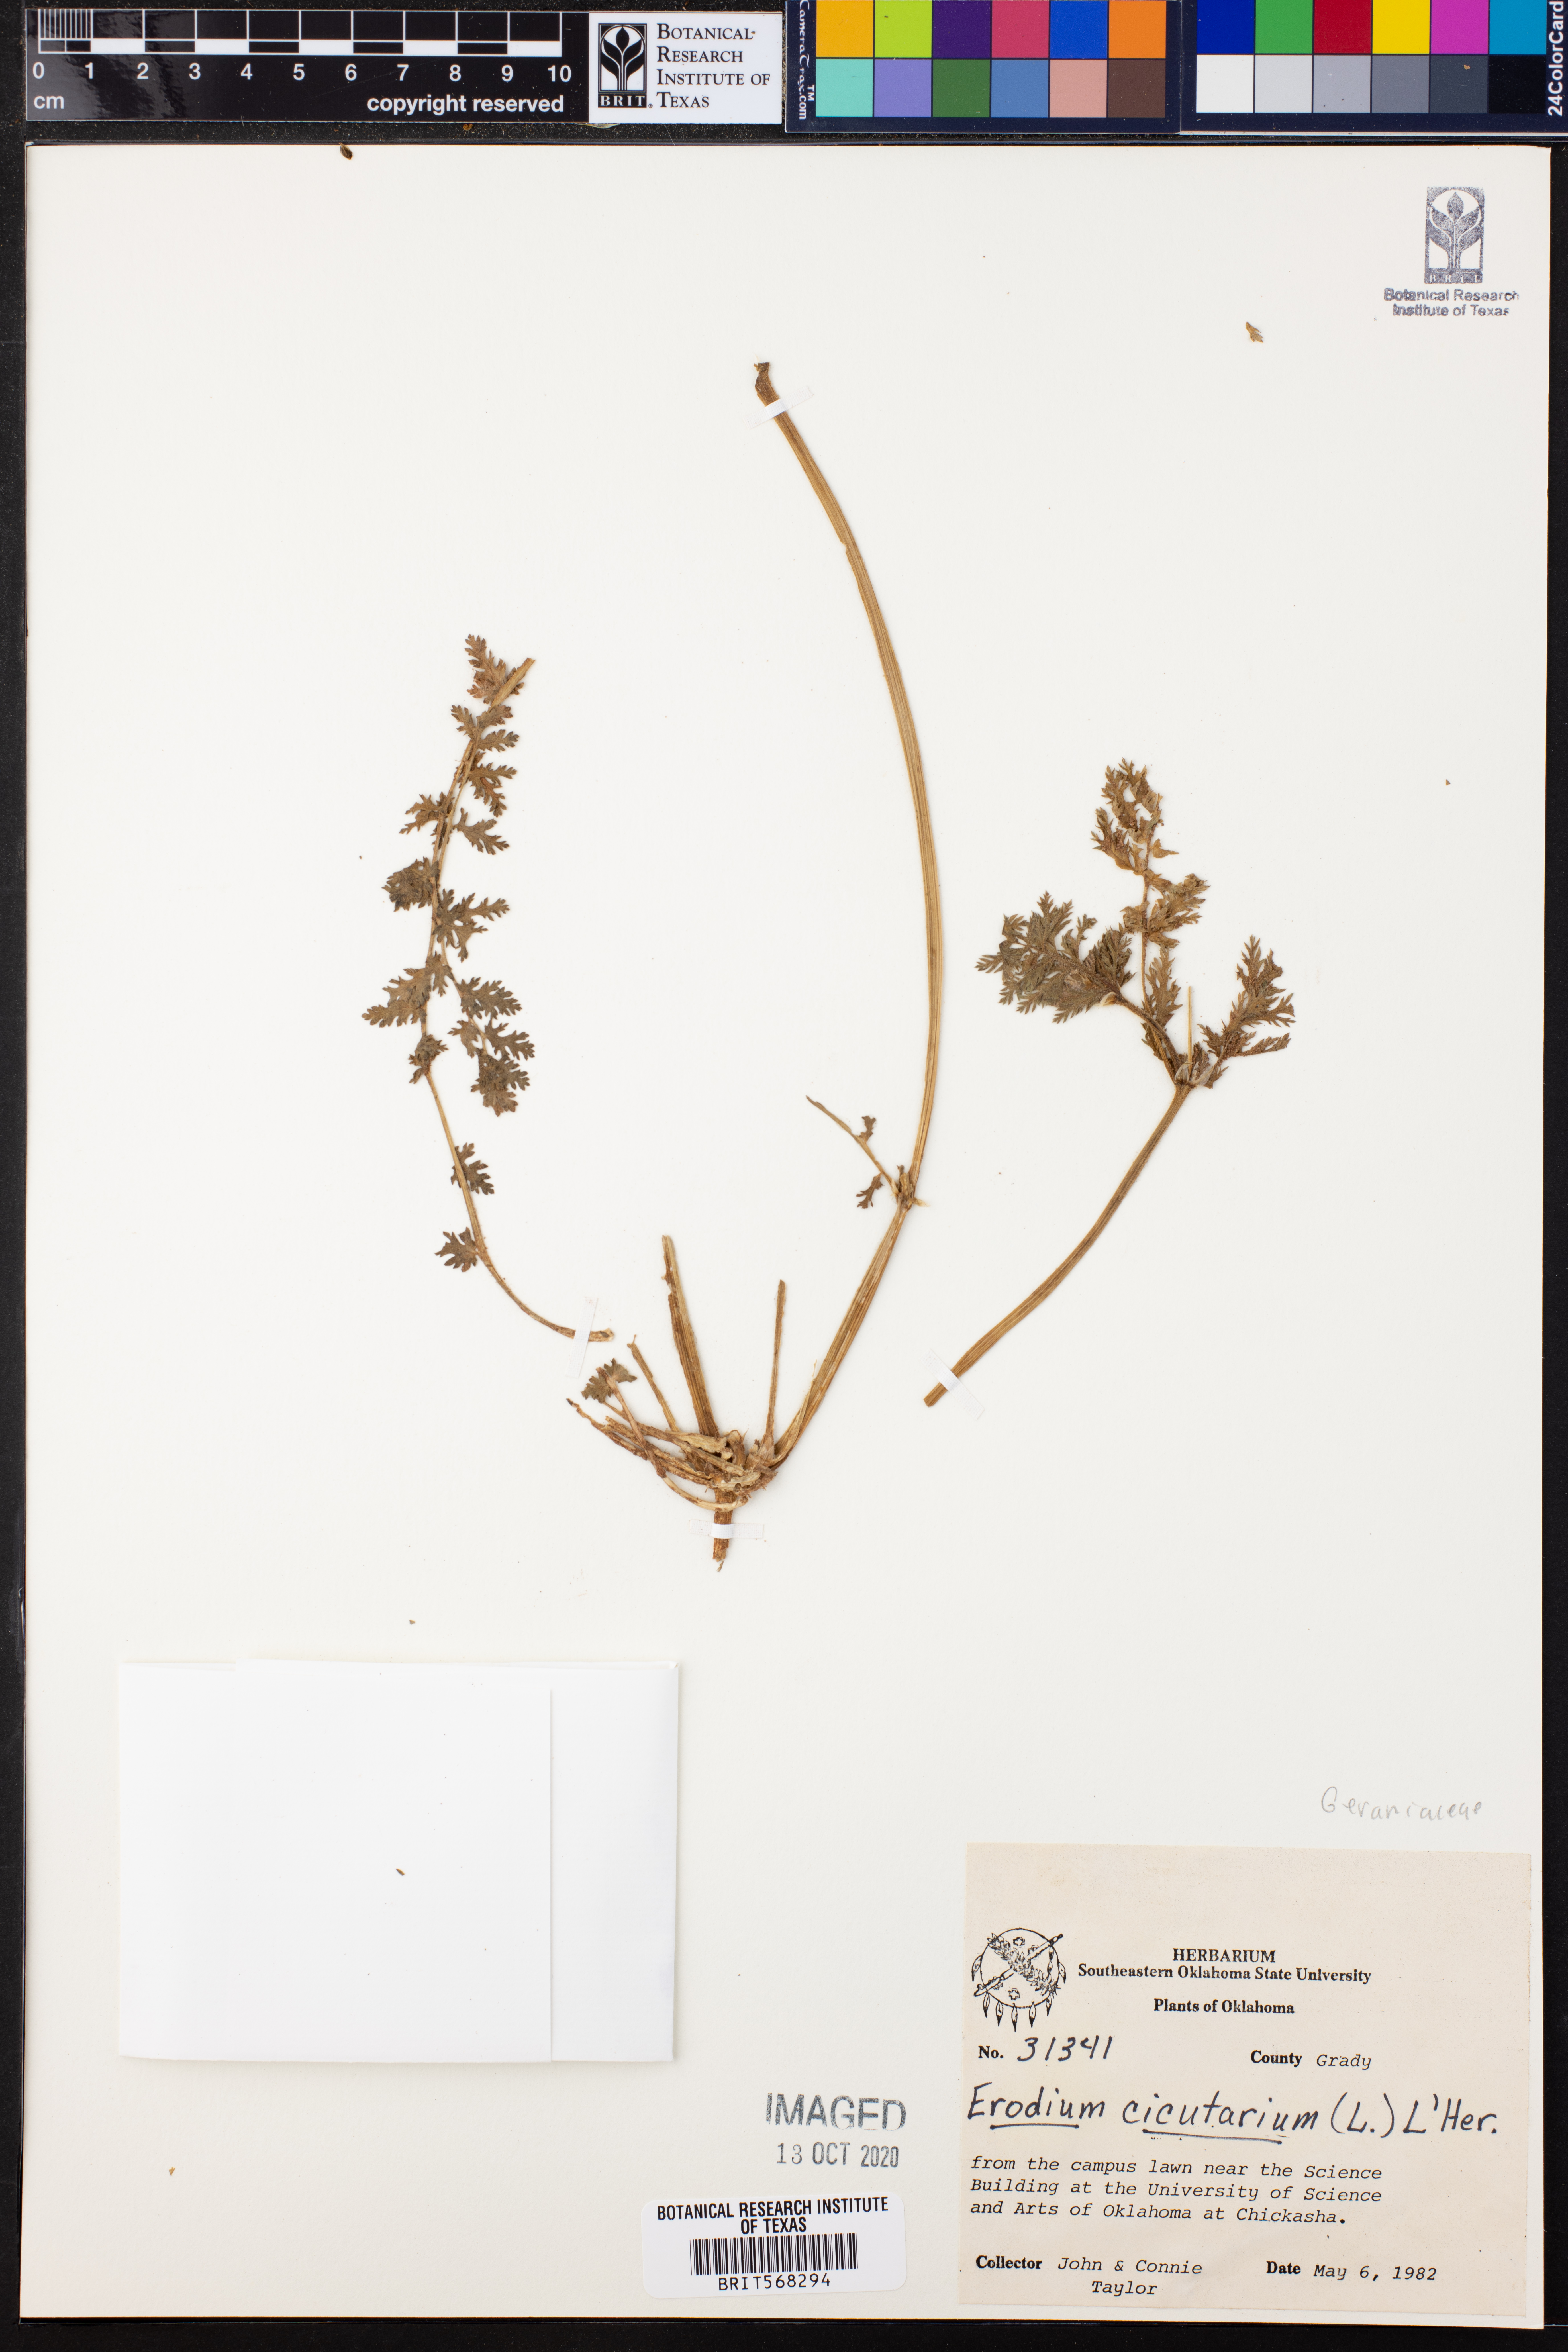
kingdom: Plantae
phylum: Tracheophyta
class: Magnoliopsida
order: Geraniales
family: Geraniaceae
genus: Erodium
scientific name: Erodium cicutarium
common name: Common stork's-bill
